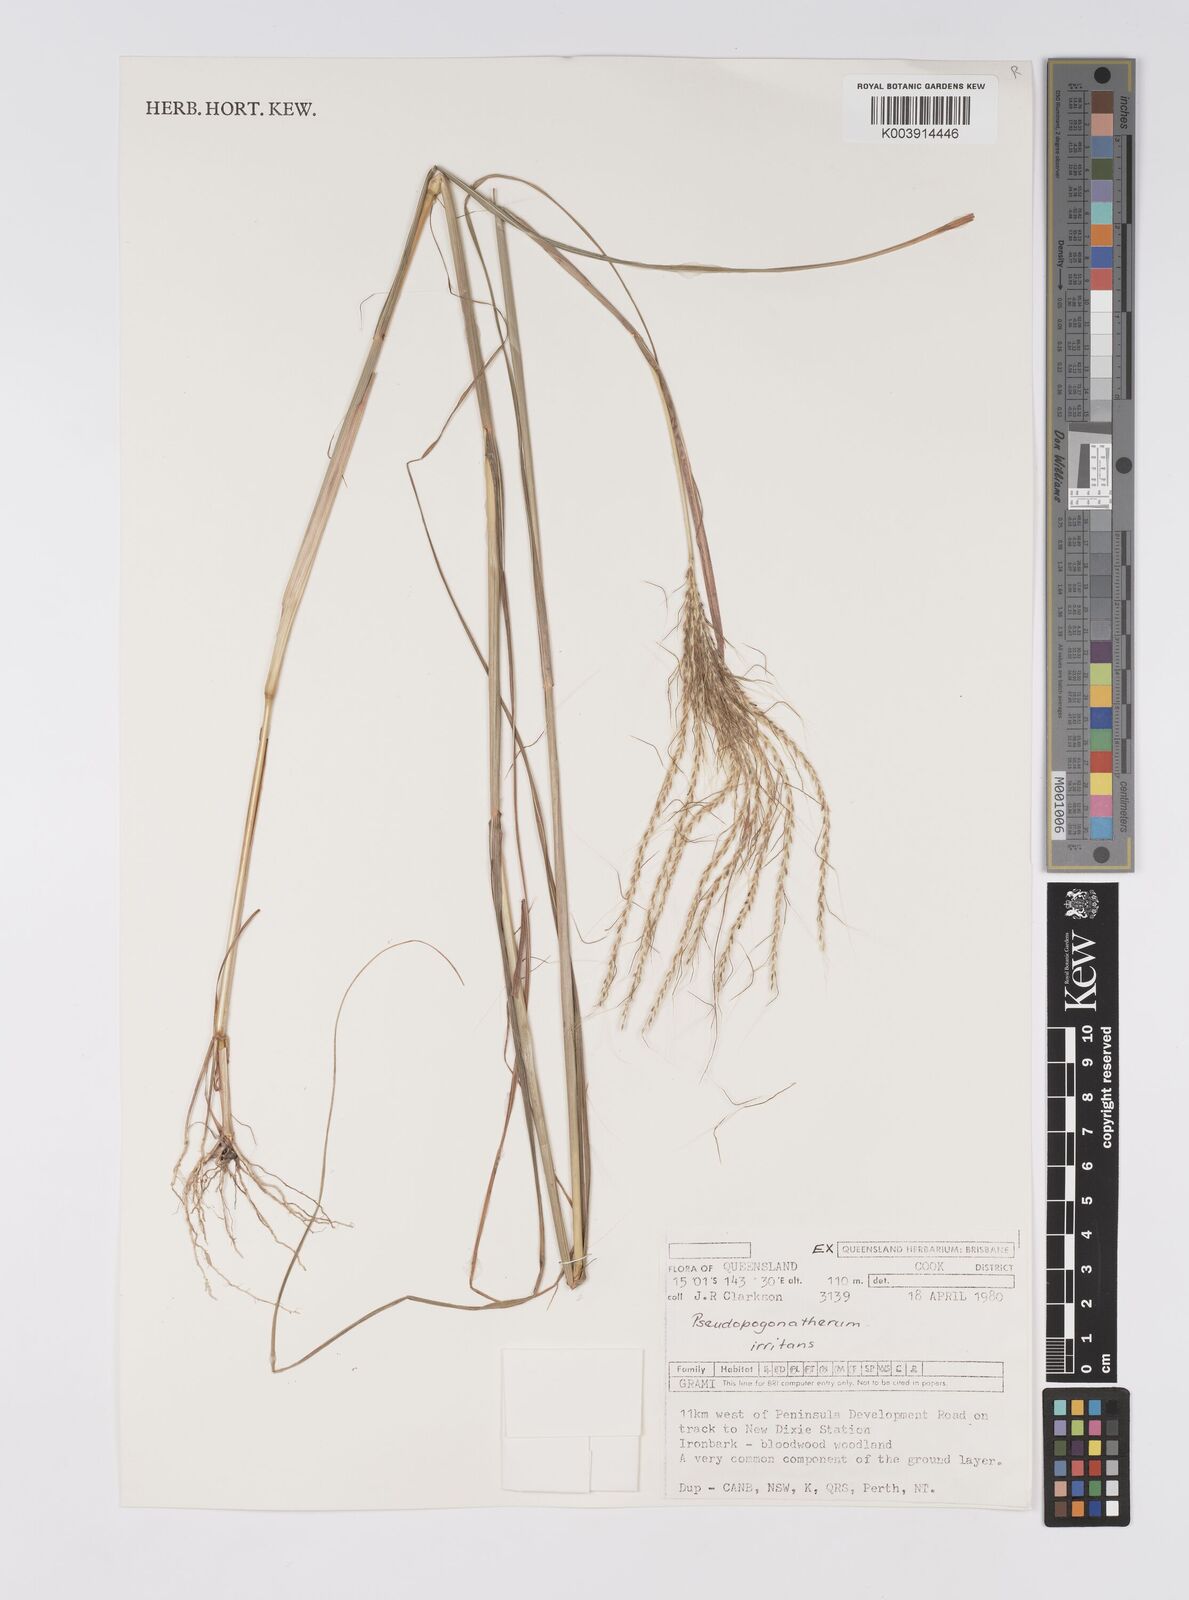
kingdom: Plantae
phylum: Tracheophyta
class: Liliopsida
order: Poales
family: Poaceae
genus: Pseudopogonatherum
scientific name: Pseudopogonatherum irritans
